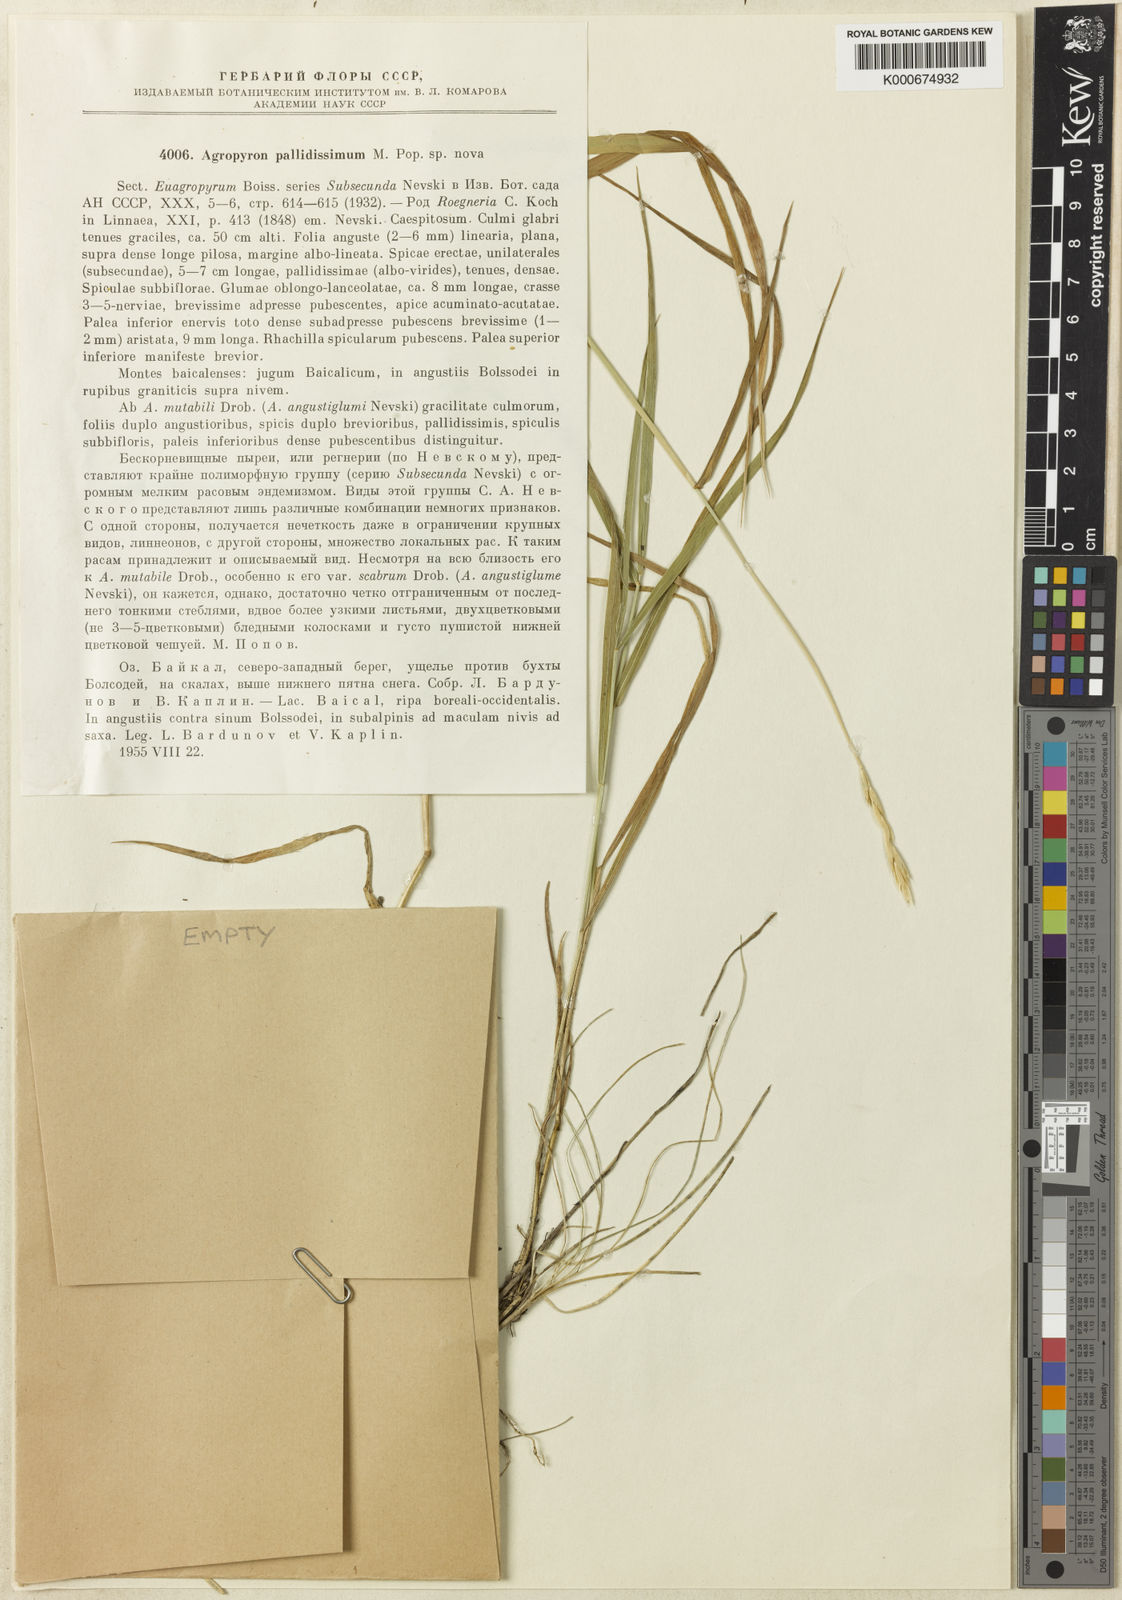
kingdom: Plantae
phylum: Tracheophyta
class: Liliopsida
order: Poales
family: Poaceae
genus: Elymus
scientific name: Elymus mutabilis
